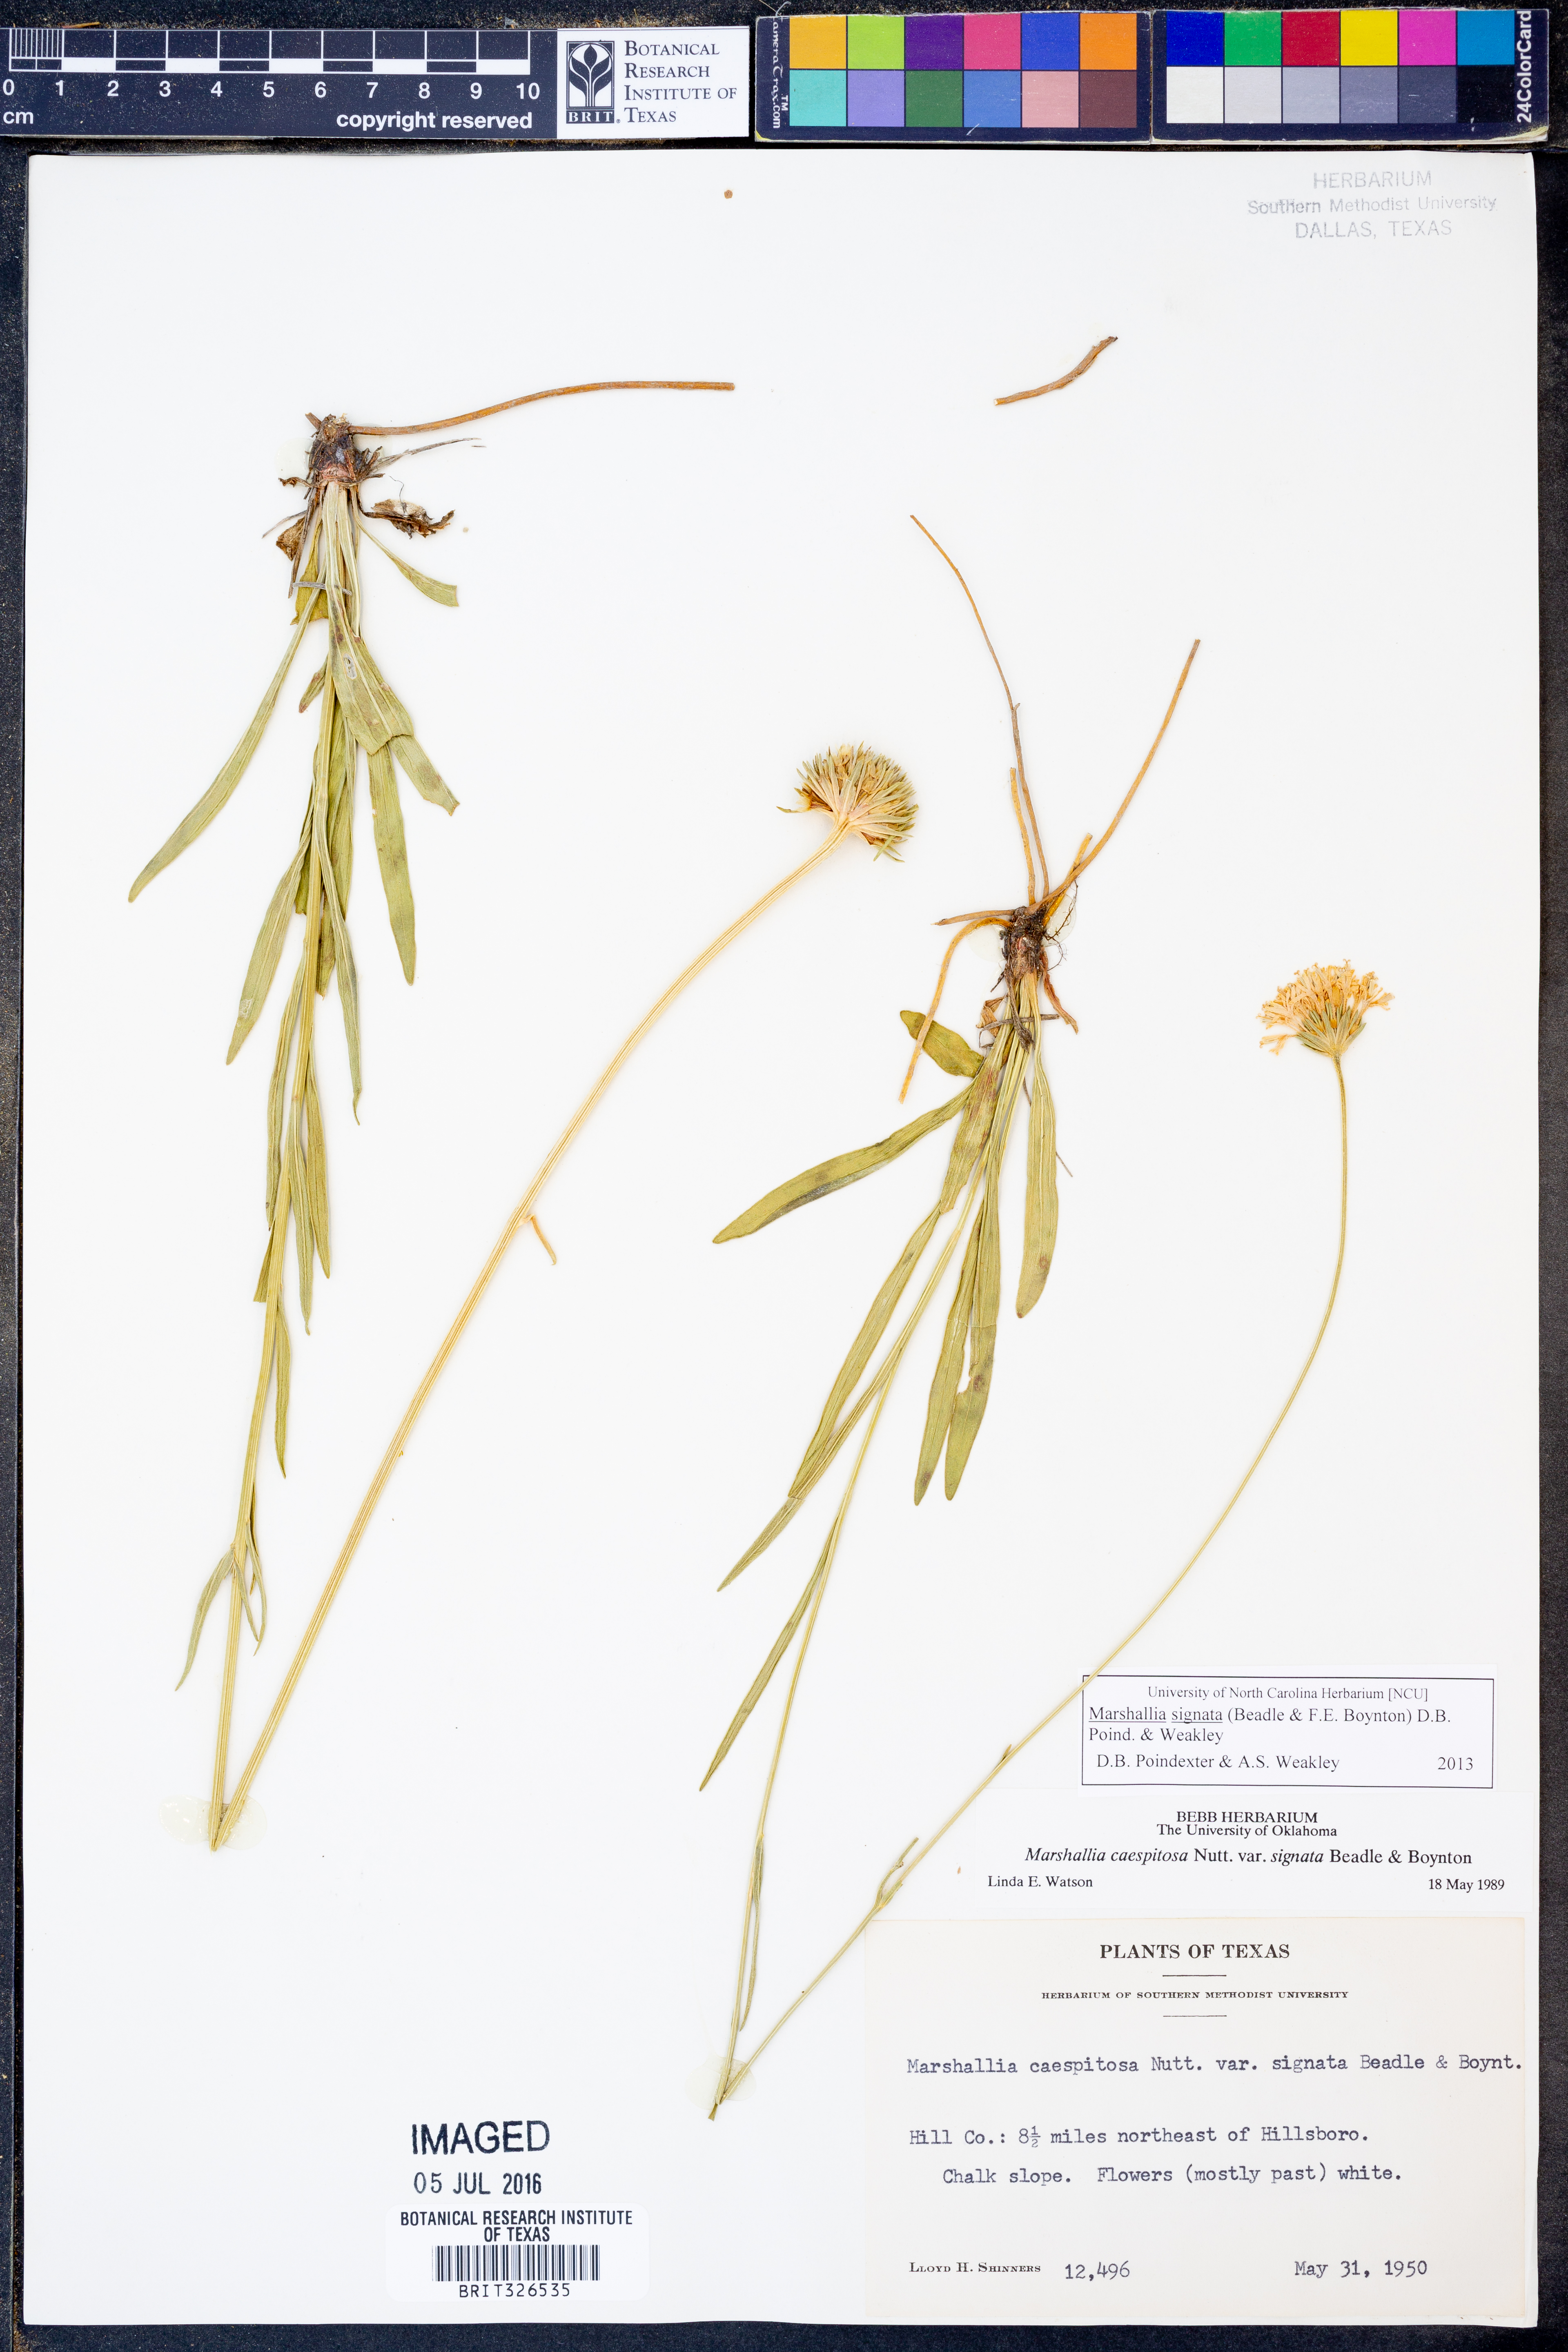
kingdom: Plantae
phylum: Tracheophyta
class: Magnoliopsida
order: Asterales
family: Asteraceae
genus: Marshallia
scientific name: Marshallia
